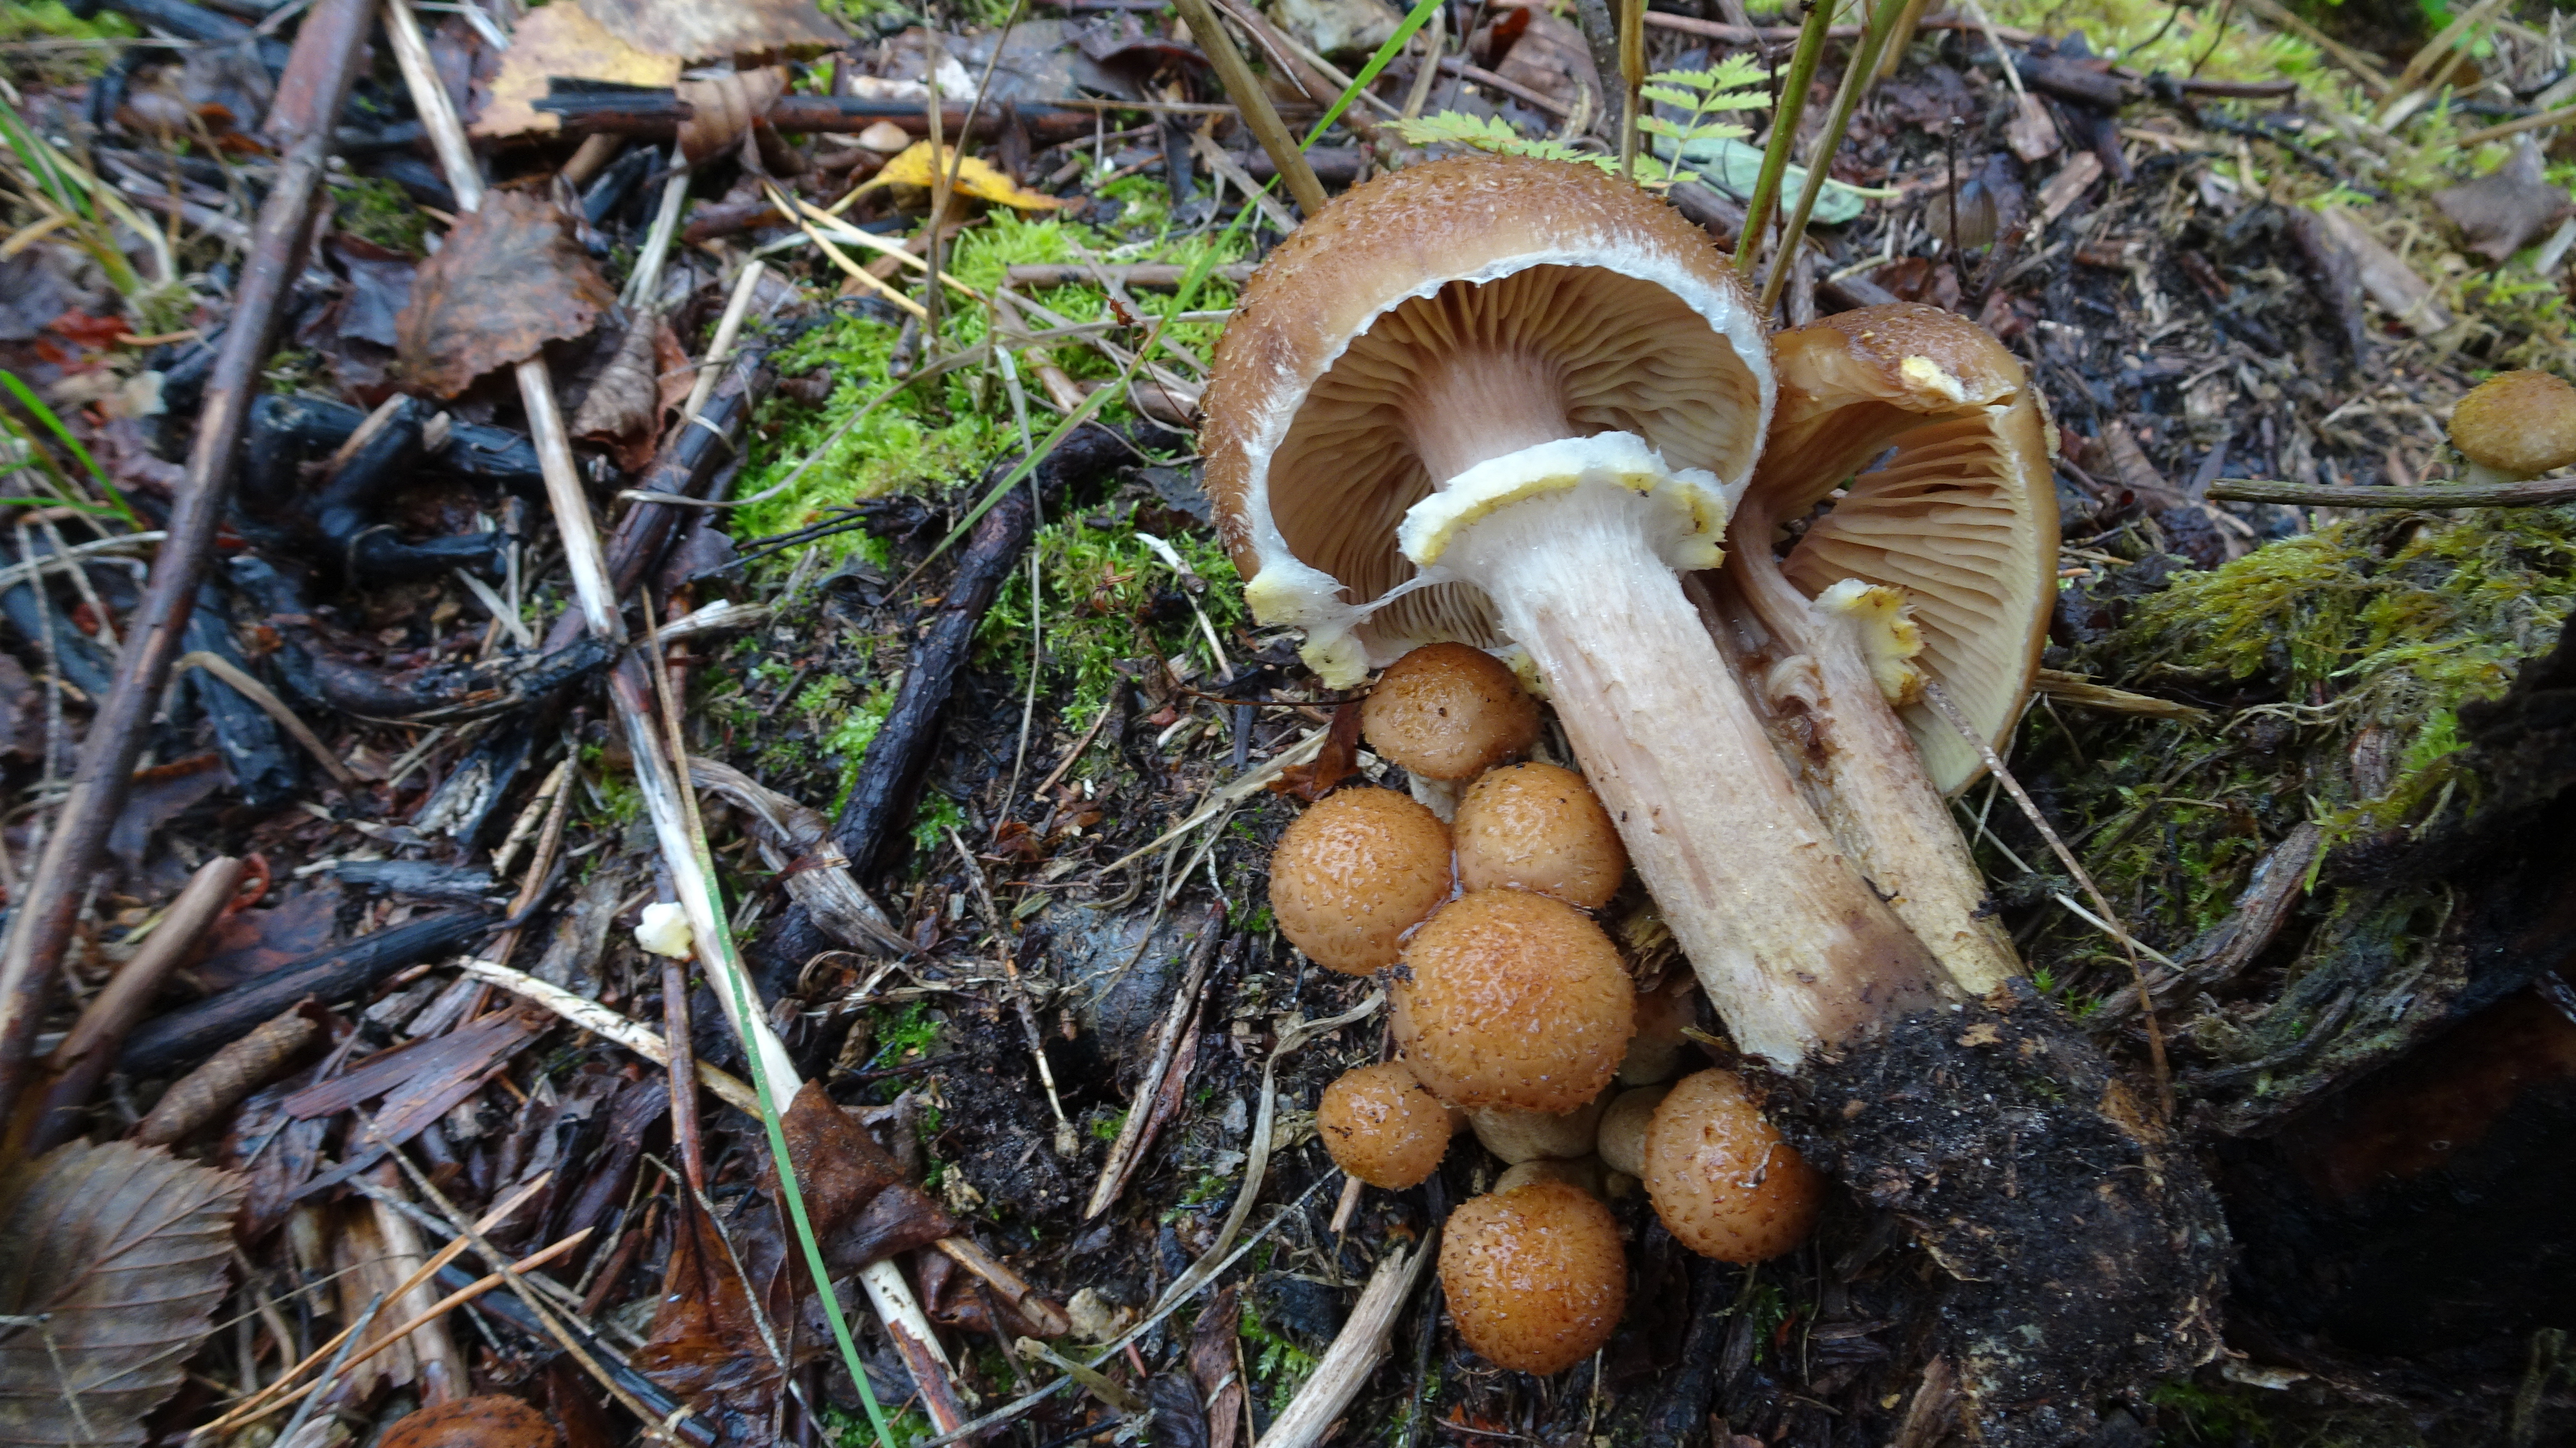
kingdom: Fungi
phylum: Basidiomycota
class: Agaricomycetes
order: Agaricales
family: Physalacriaceae
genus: Armillaria
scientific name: Armillaria borealis
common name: Northern honey fungus
